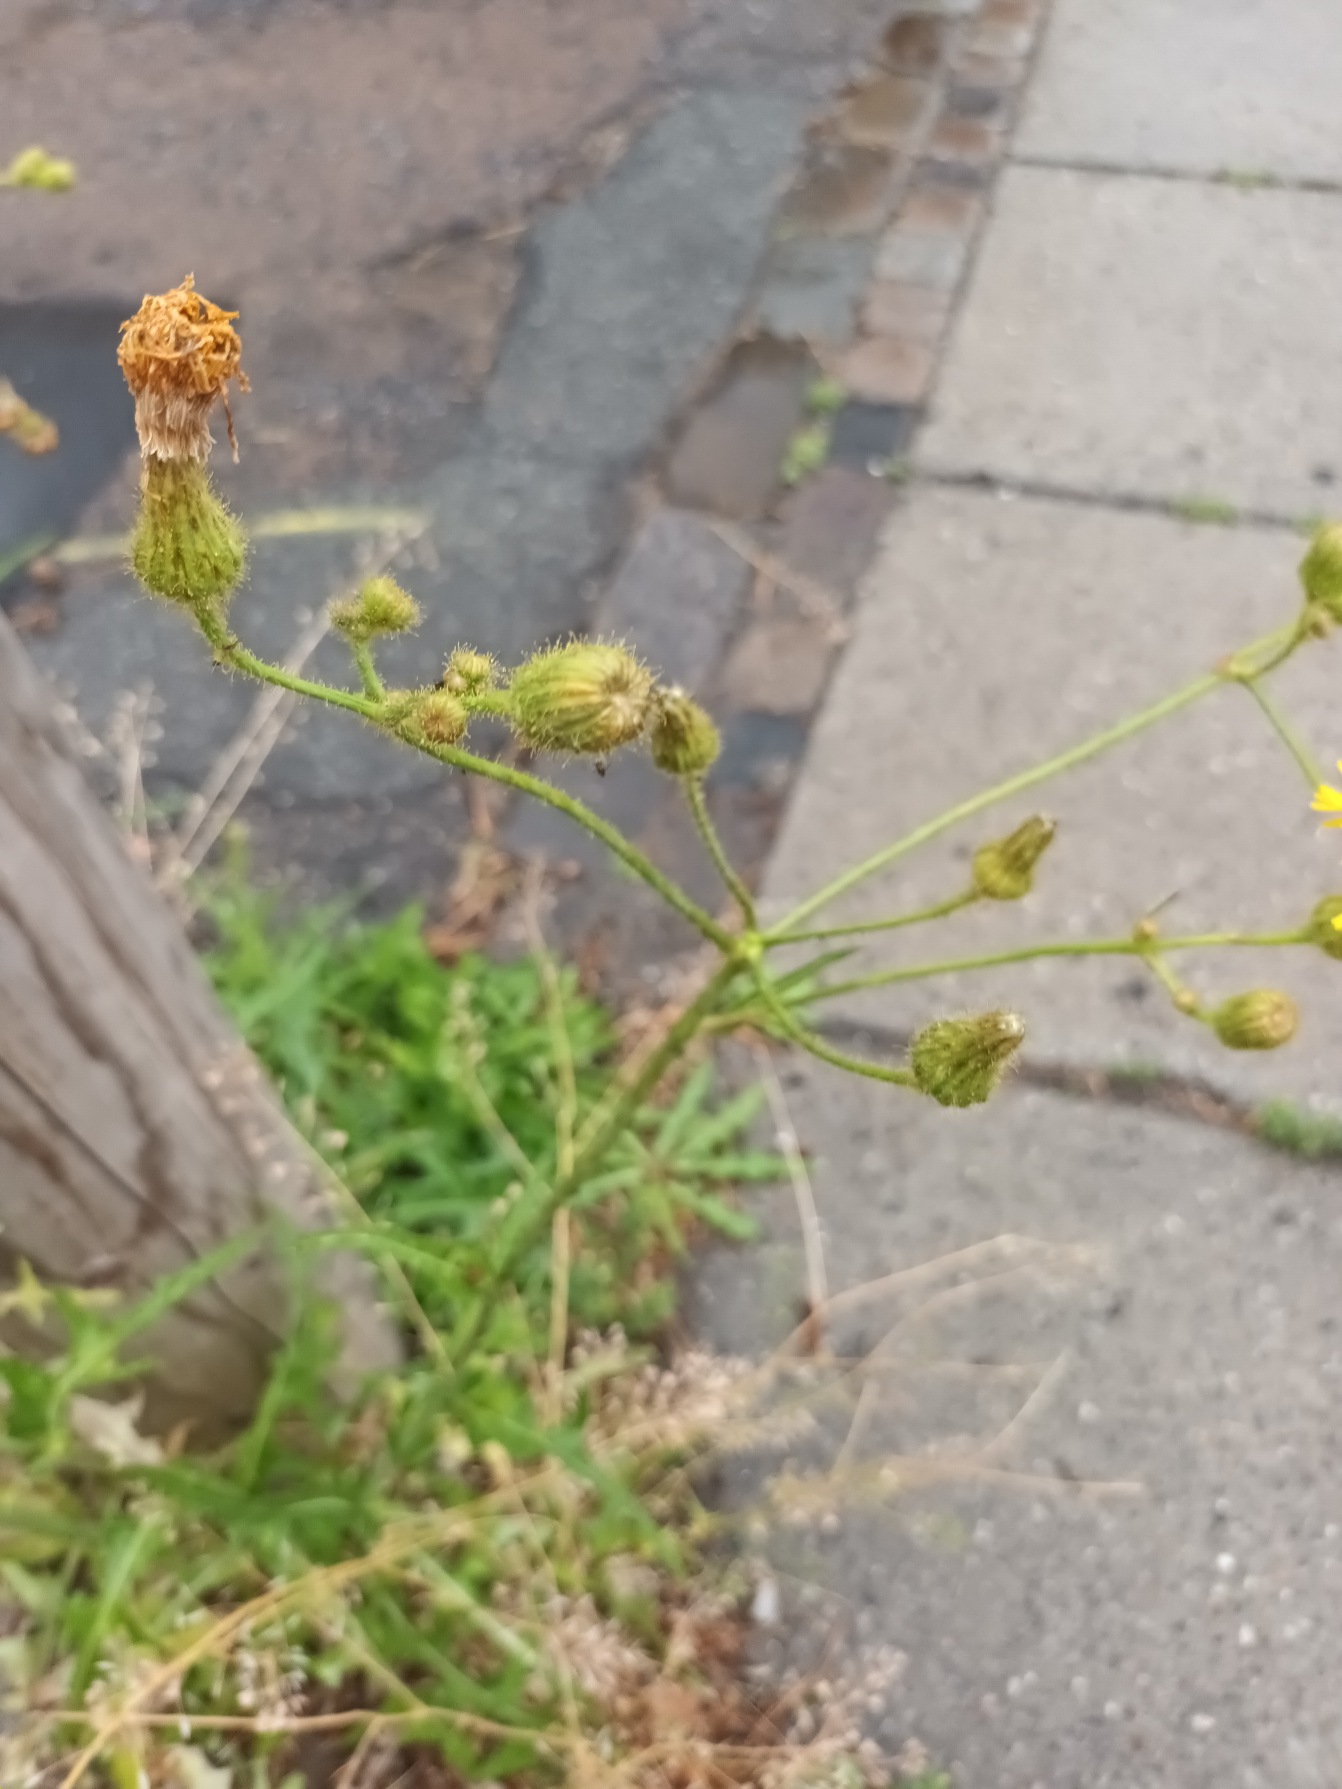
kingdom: Plantae
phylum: Tracheophyta
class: Magnoliopsida
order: Asterales
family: Asteraceae
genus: Sonchus
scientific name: Sonchus arvensis
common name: Ager-svinemælk
